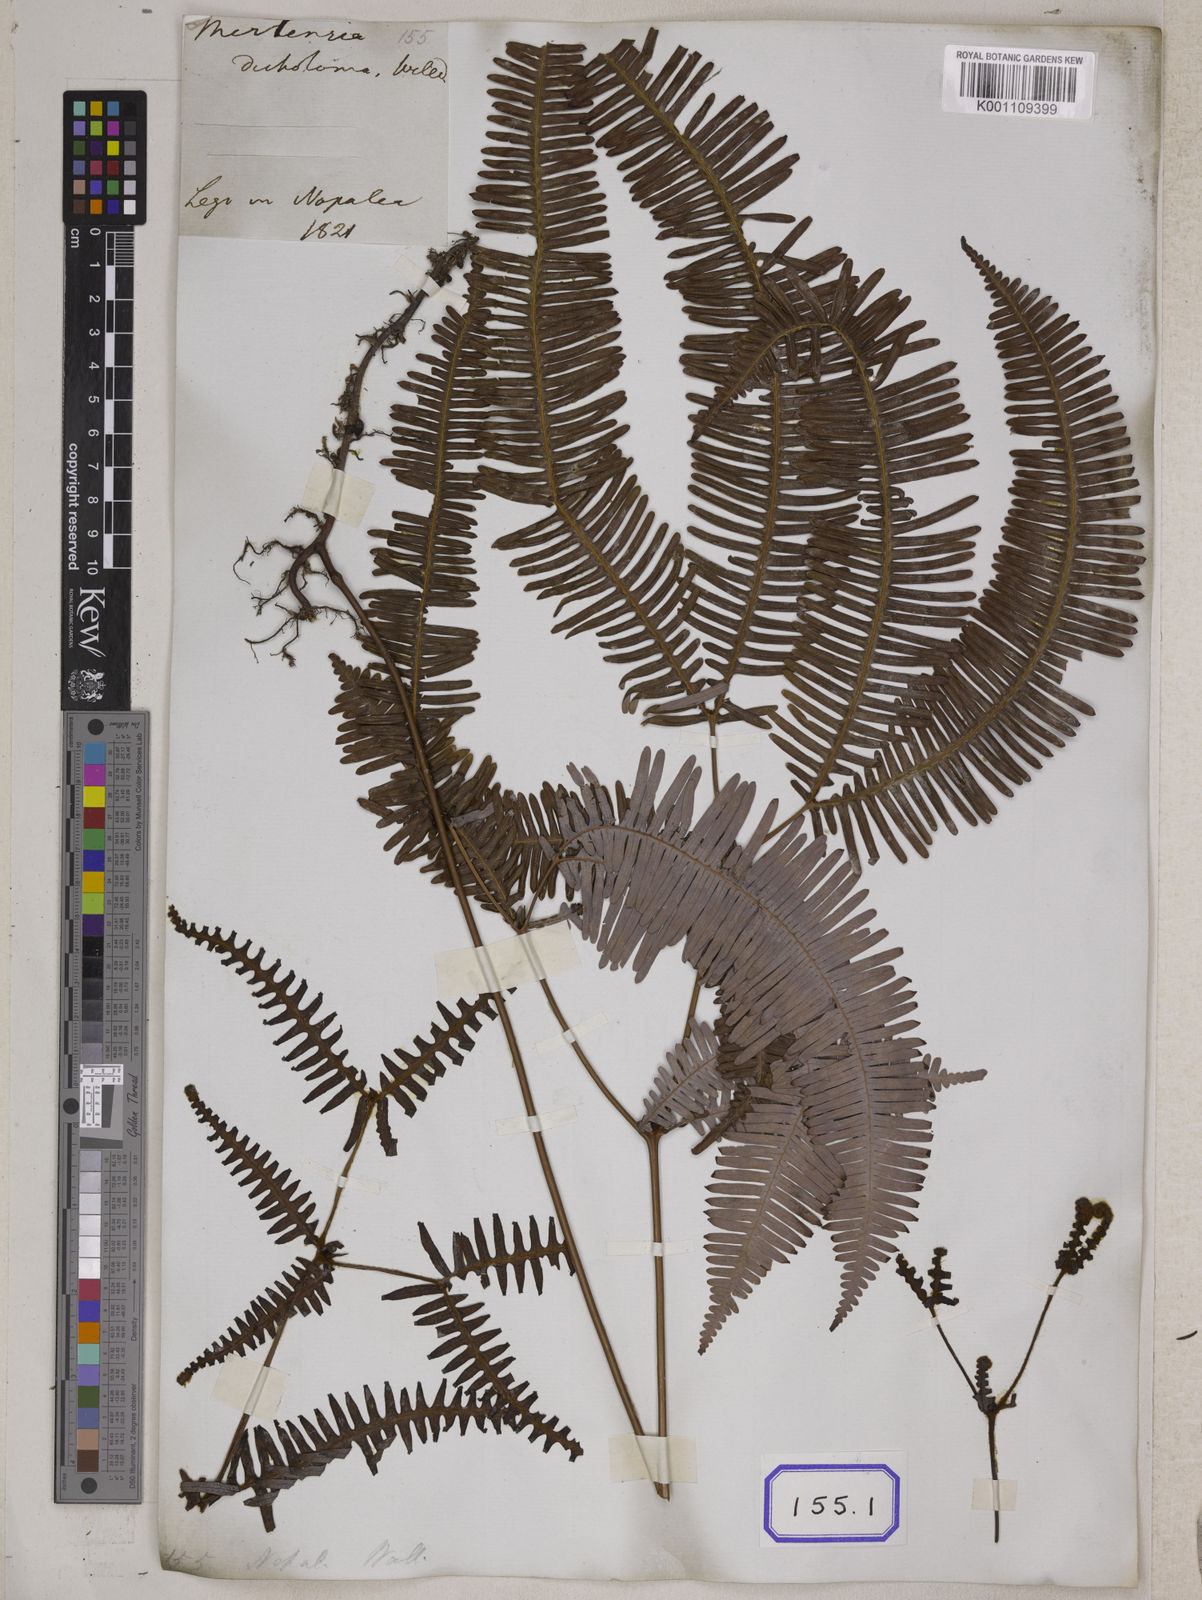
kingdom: Plantae
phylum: Tracheophyta
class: Polypodiopsida
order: Gleicheniales
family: Gleicheniaceae
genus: Dicranopteris
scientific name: Dicranopteris linearis
